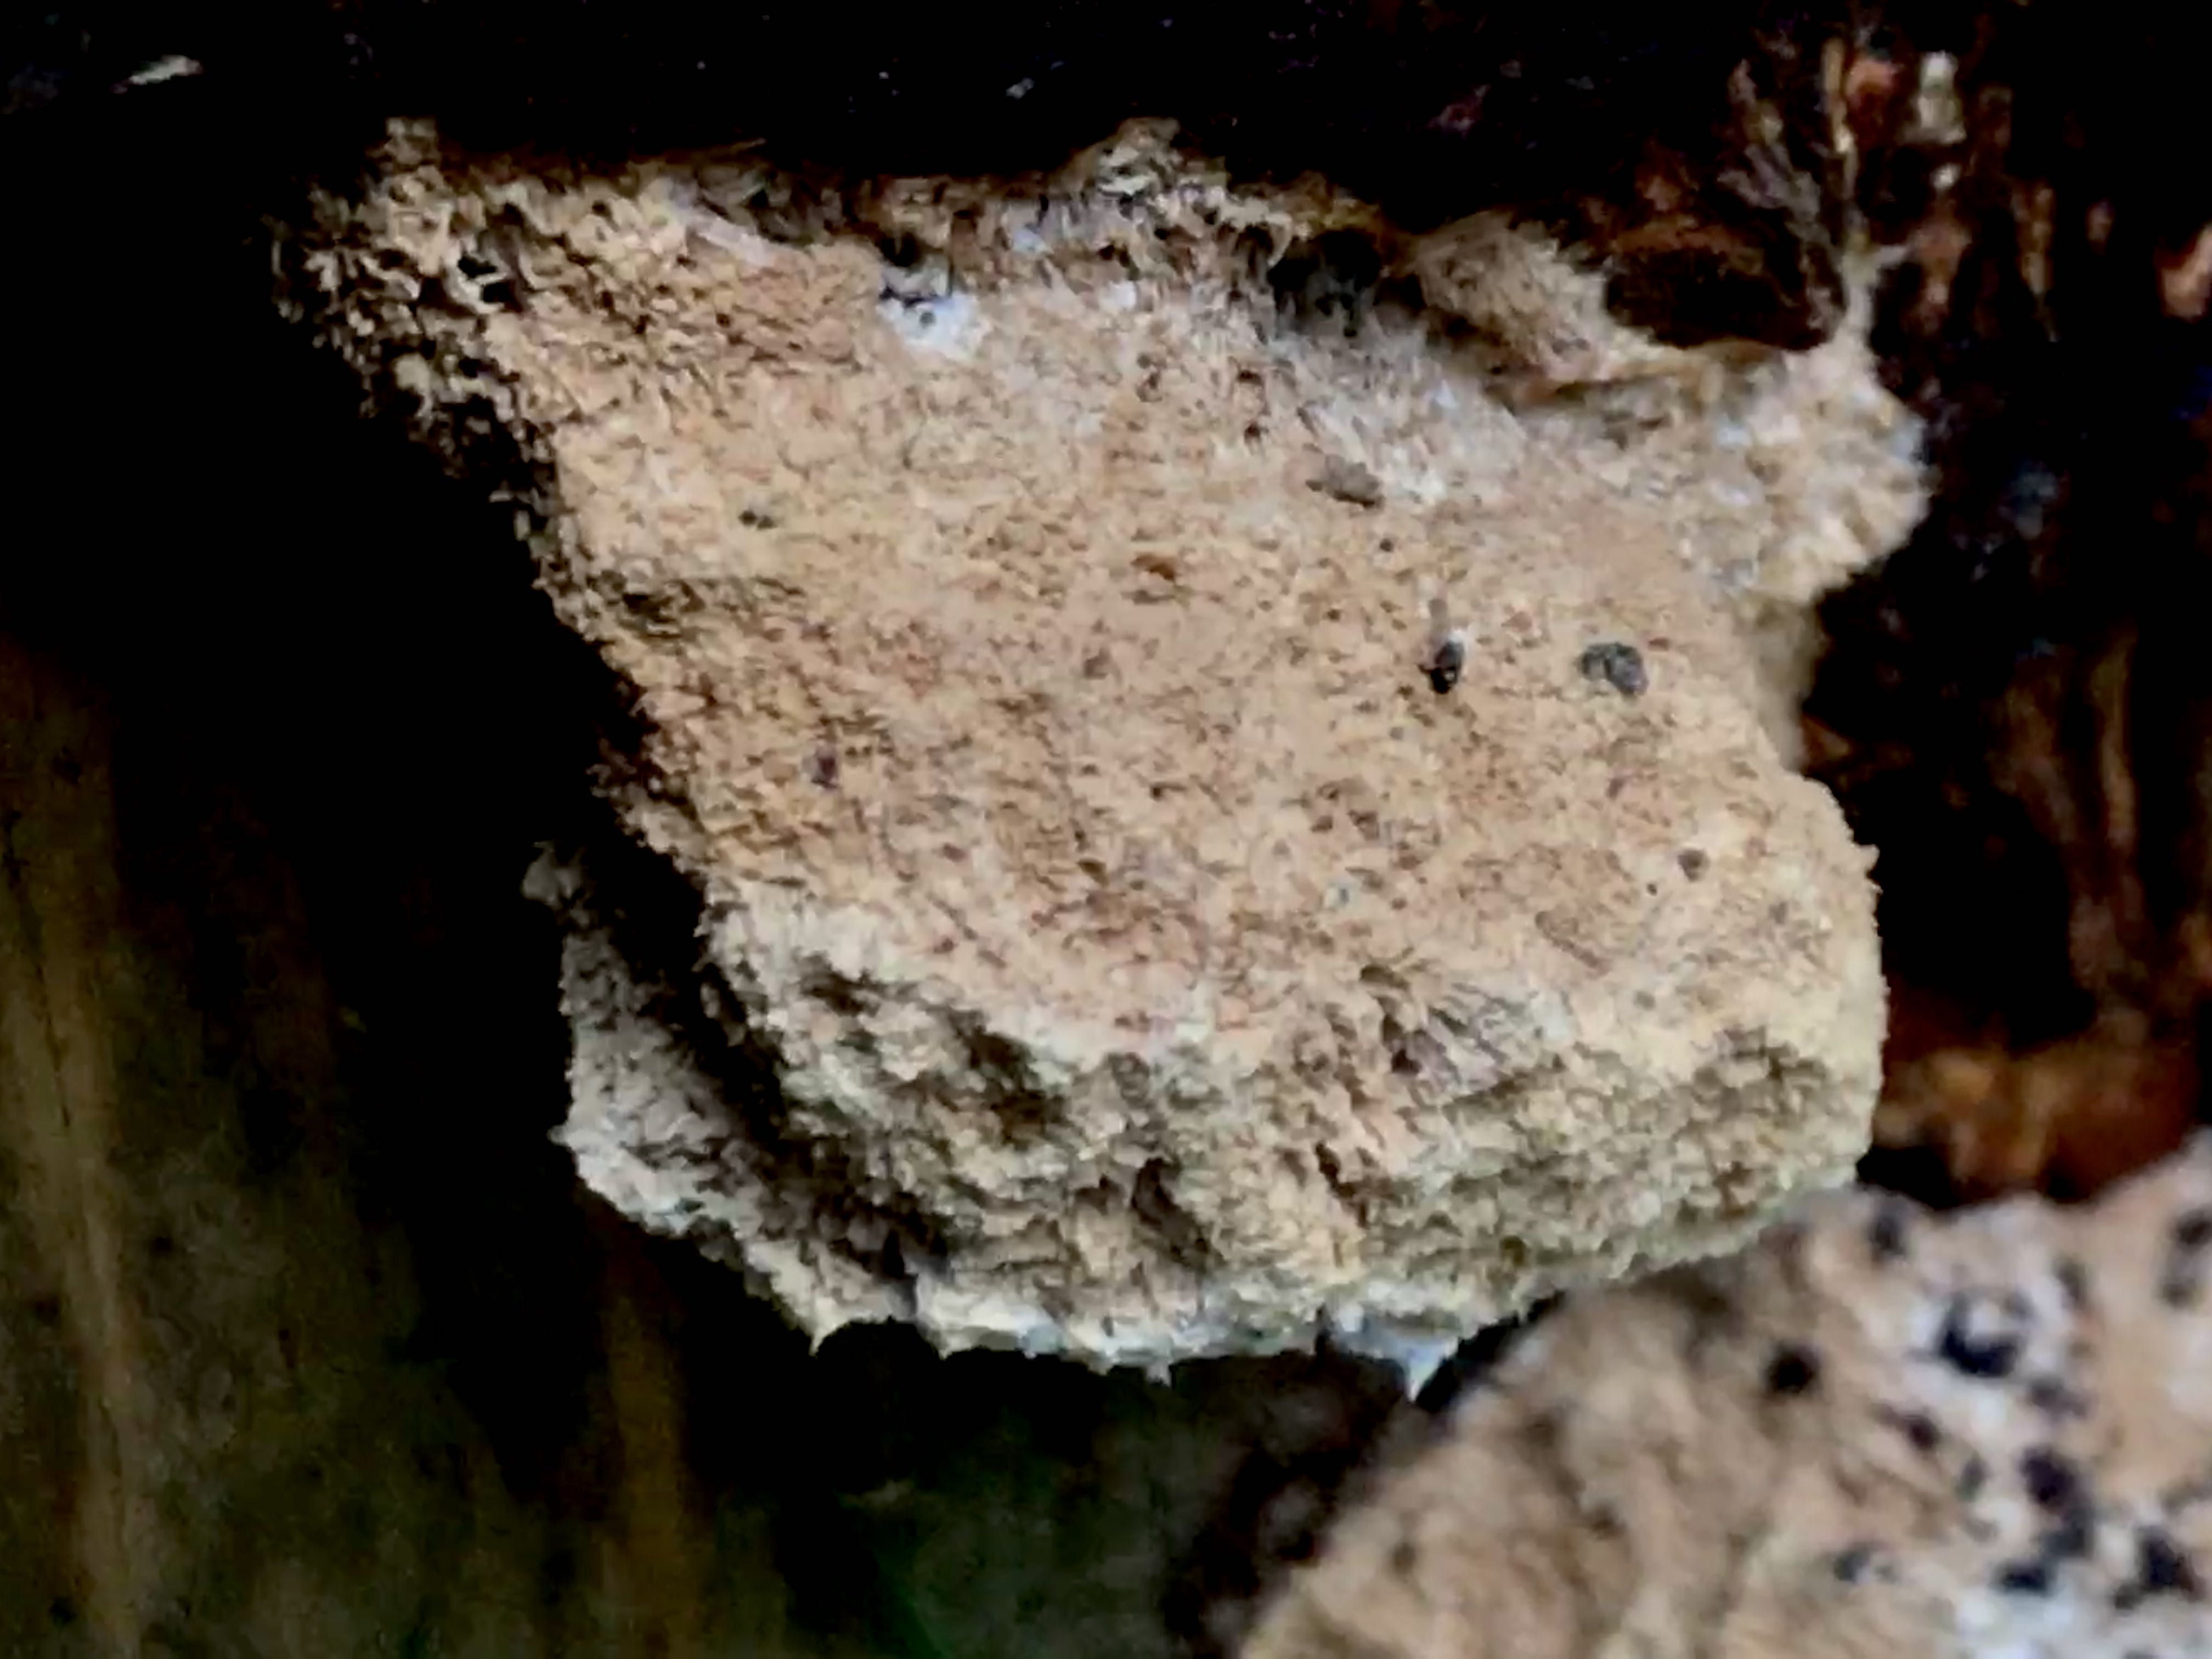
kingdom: Fungi
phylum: Basidiomycota
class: Agaricomycetes
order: Polyporales
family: Dacryobolaceae
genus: Postia
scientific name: Postia ptychogaster
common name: støvende kødporesvamp
